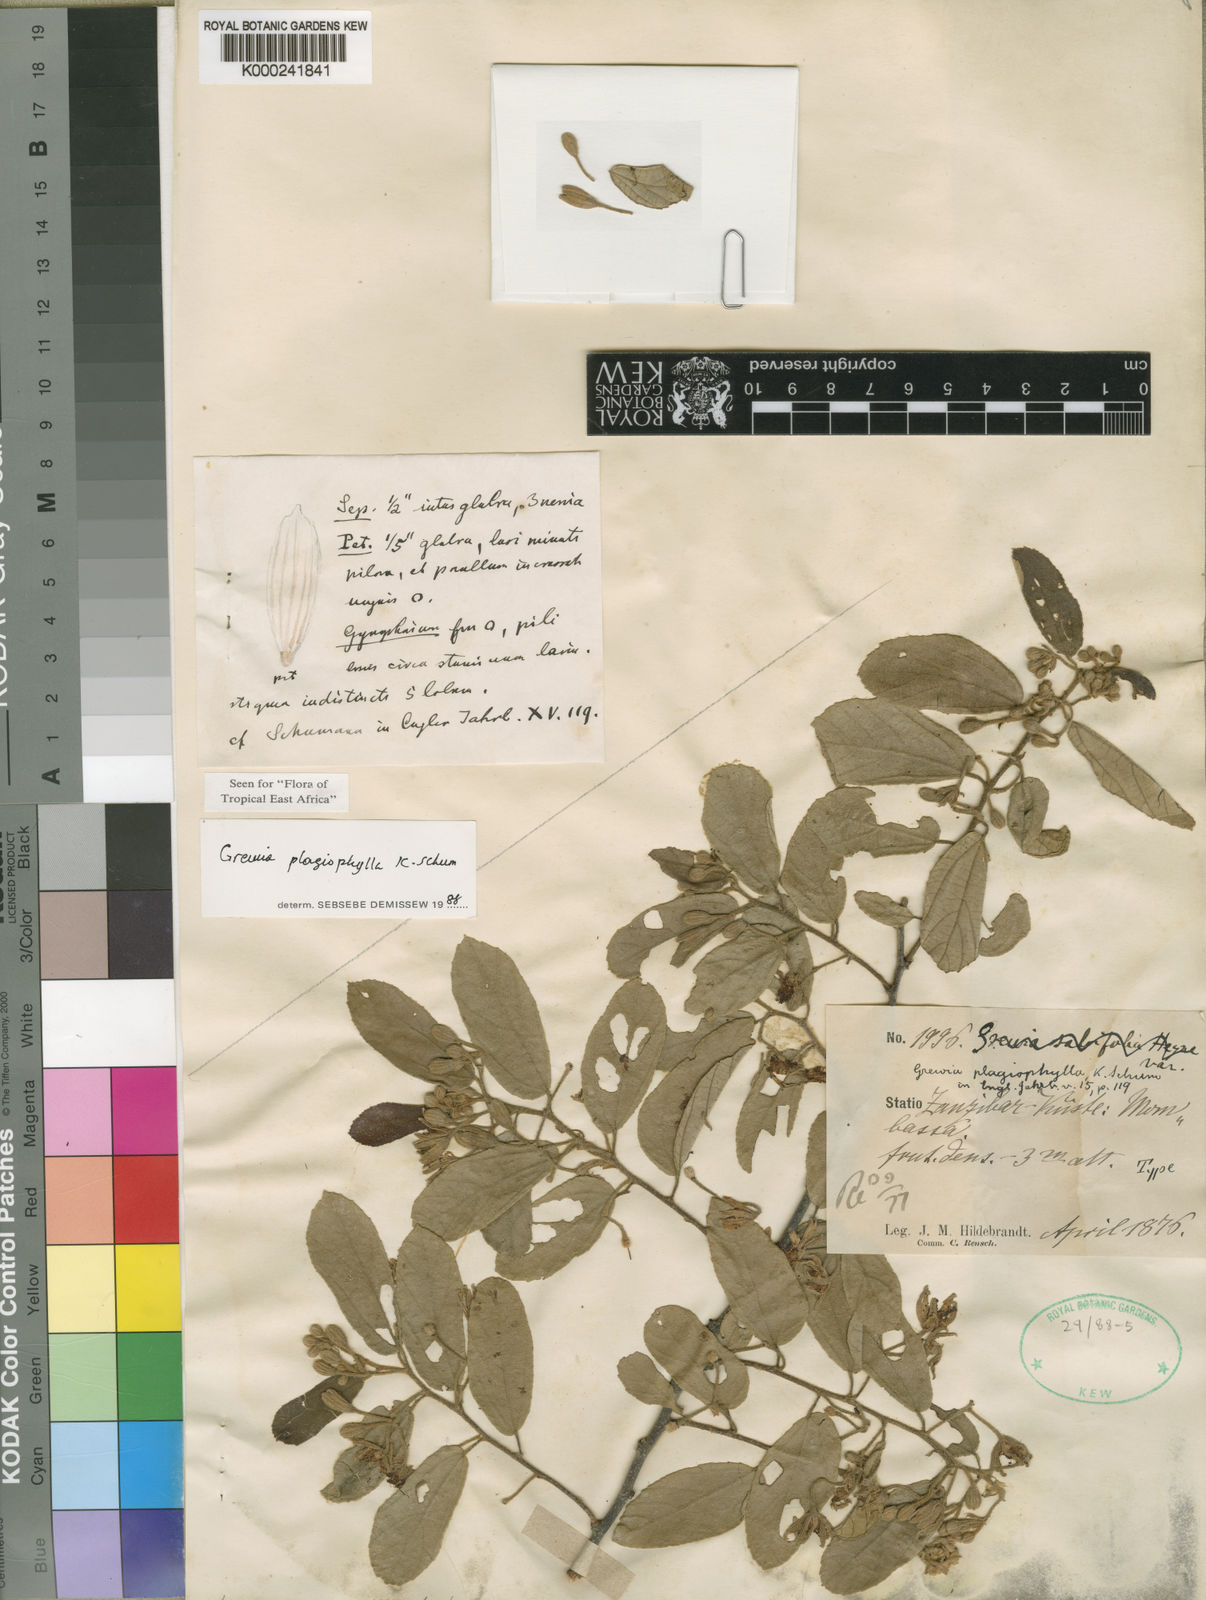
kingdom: Plantae
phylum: Tracheophyta
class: Magnoliopsida
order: Malvales
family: Malvaceae
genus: Grewia
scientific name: Grewia plagiophylla
